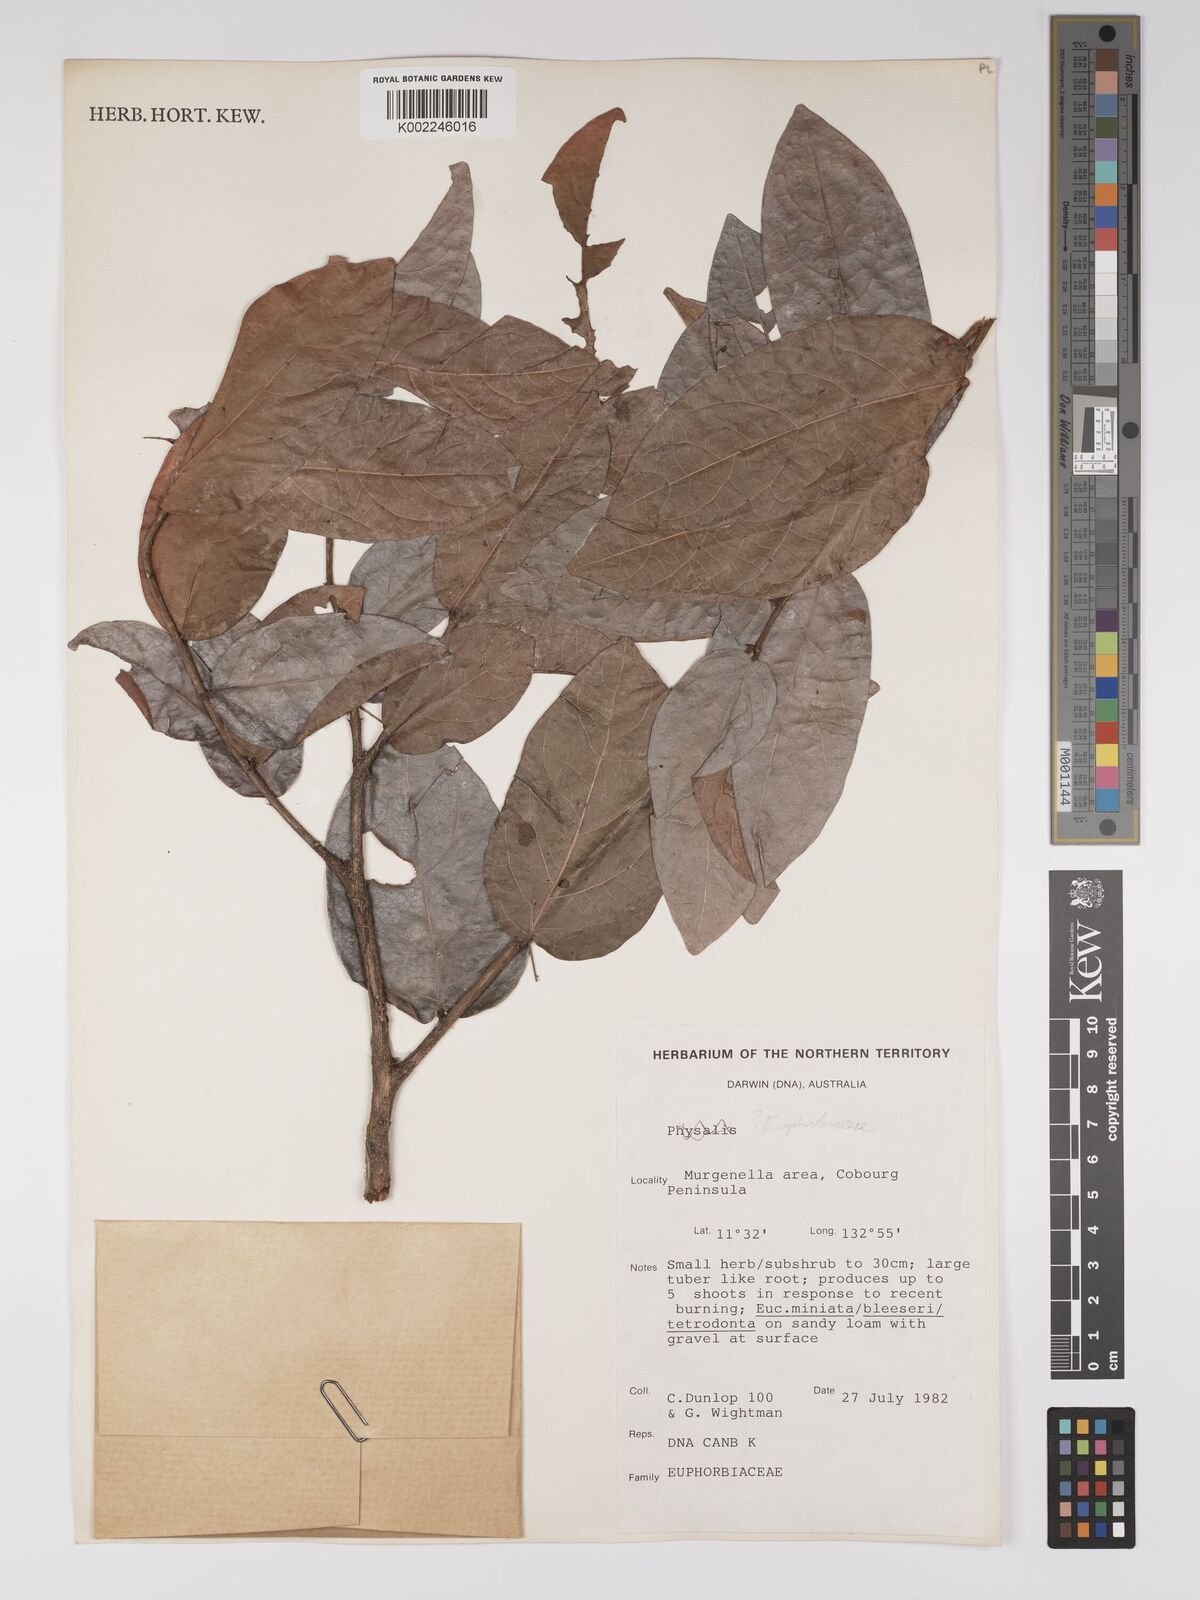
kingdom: Plantae
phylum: Tracheophyta
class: Magnoliopsida
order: Malpighiales
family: Euphorbiaceae
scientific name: Euphorbiaceae
